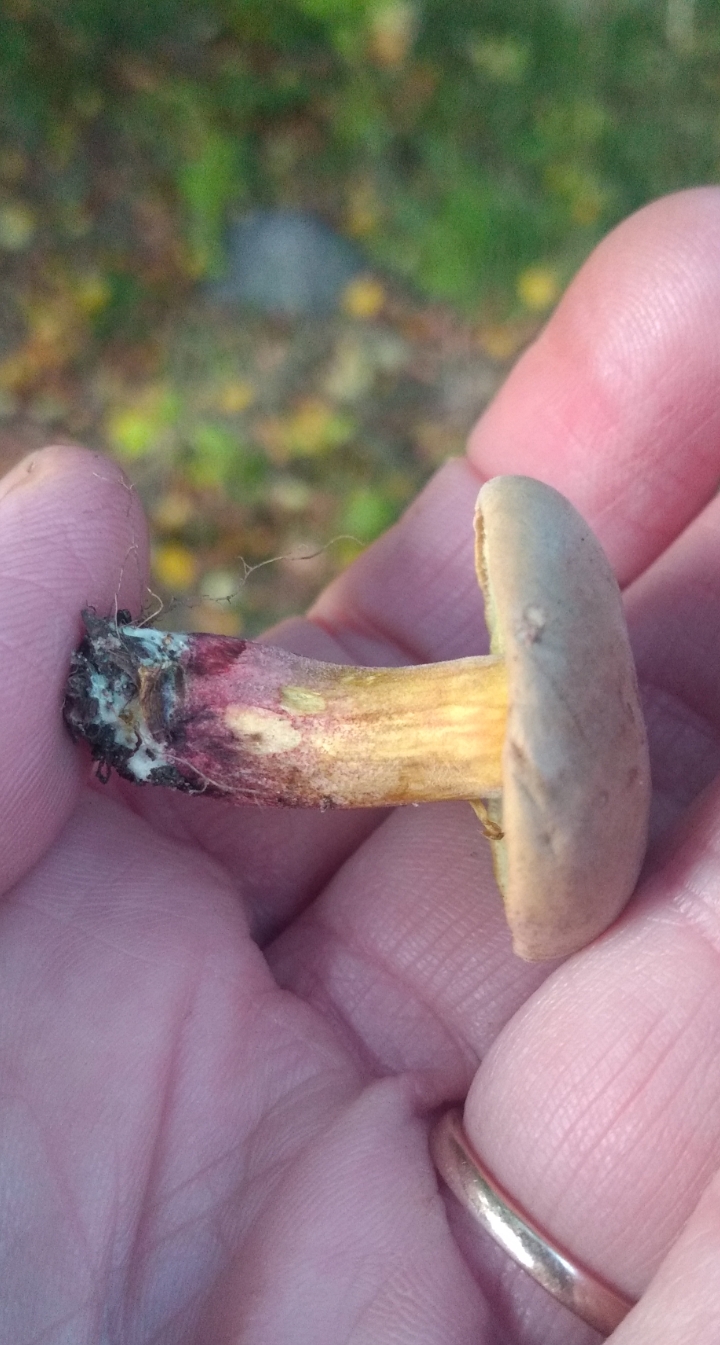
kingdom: Fungi
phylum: Basidiomycota
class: Agaricomycetes
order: Boletales
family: Boletaceae
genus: Xerocomellus
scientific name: Xerocomellus pruinatus
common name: dugget rørhat
